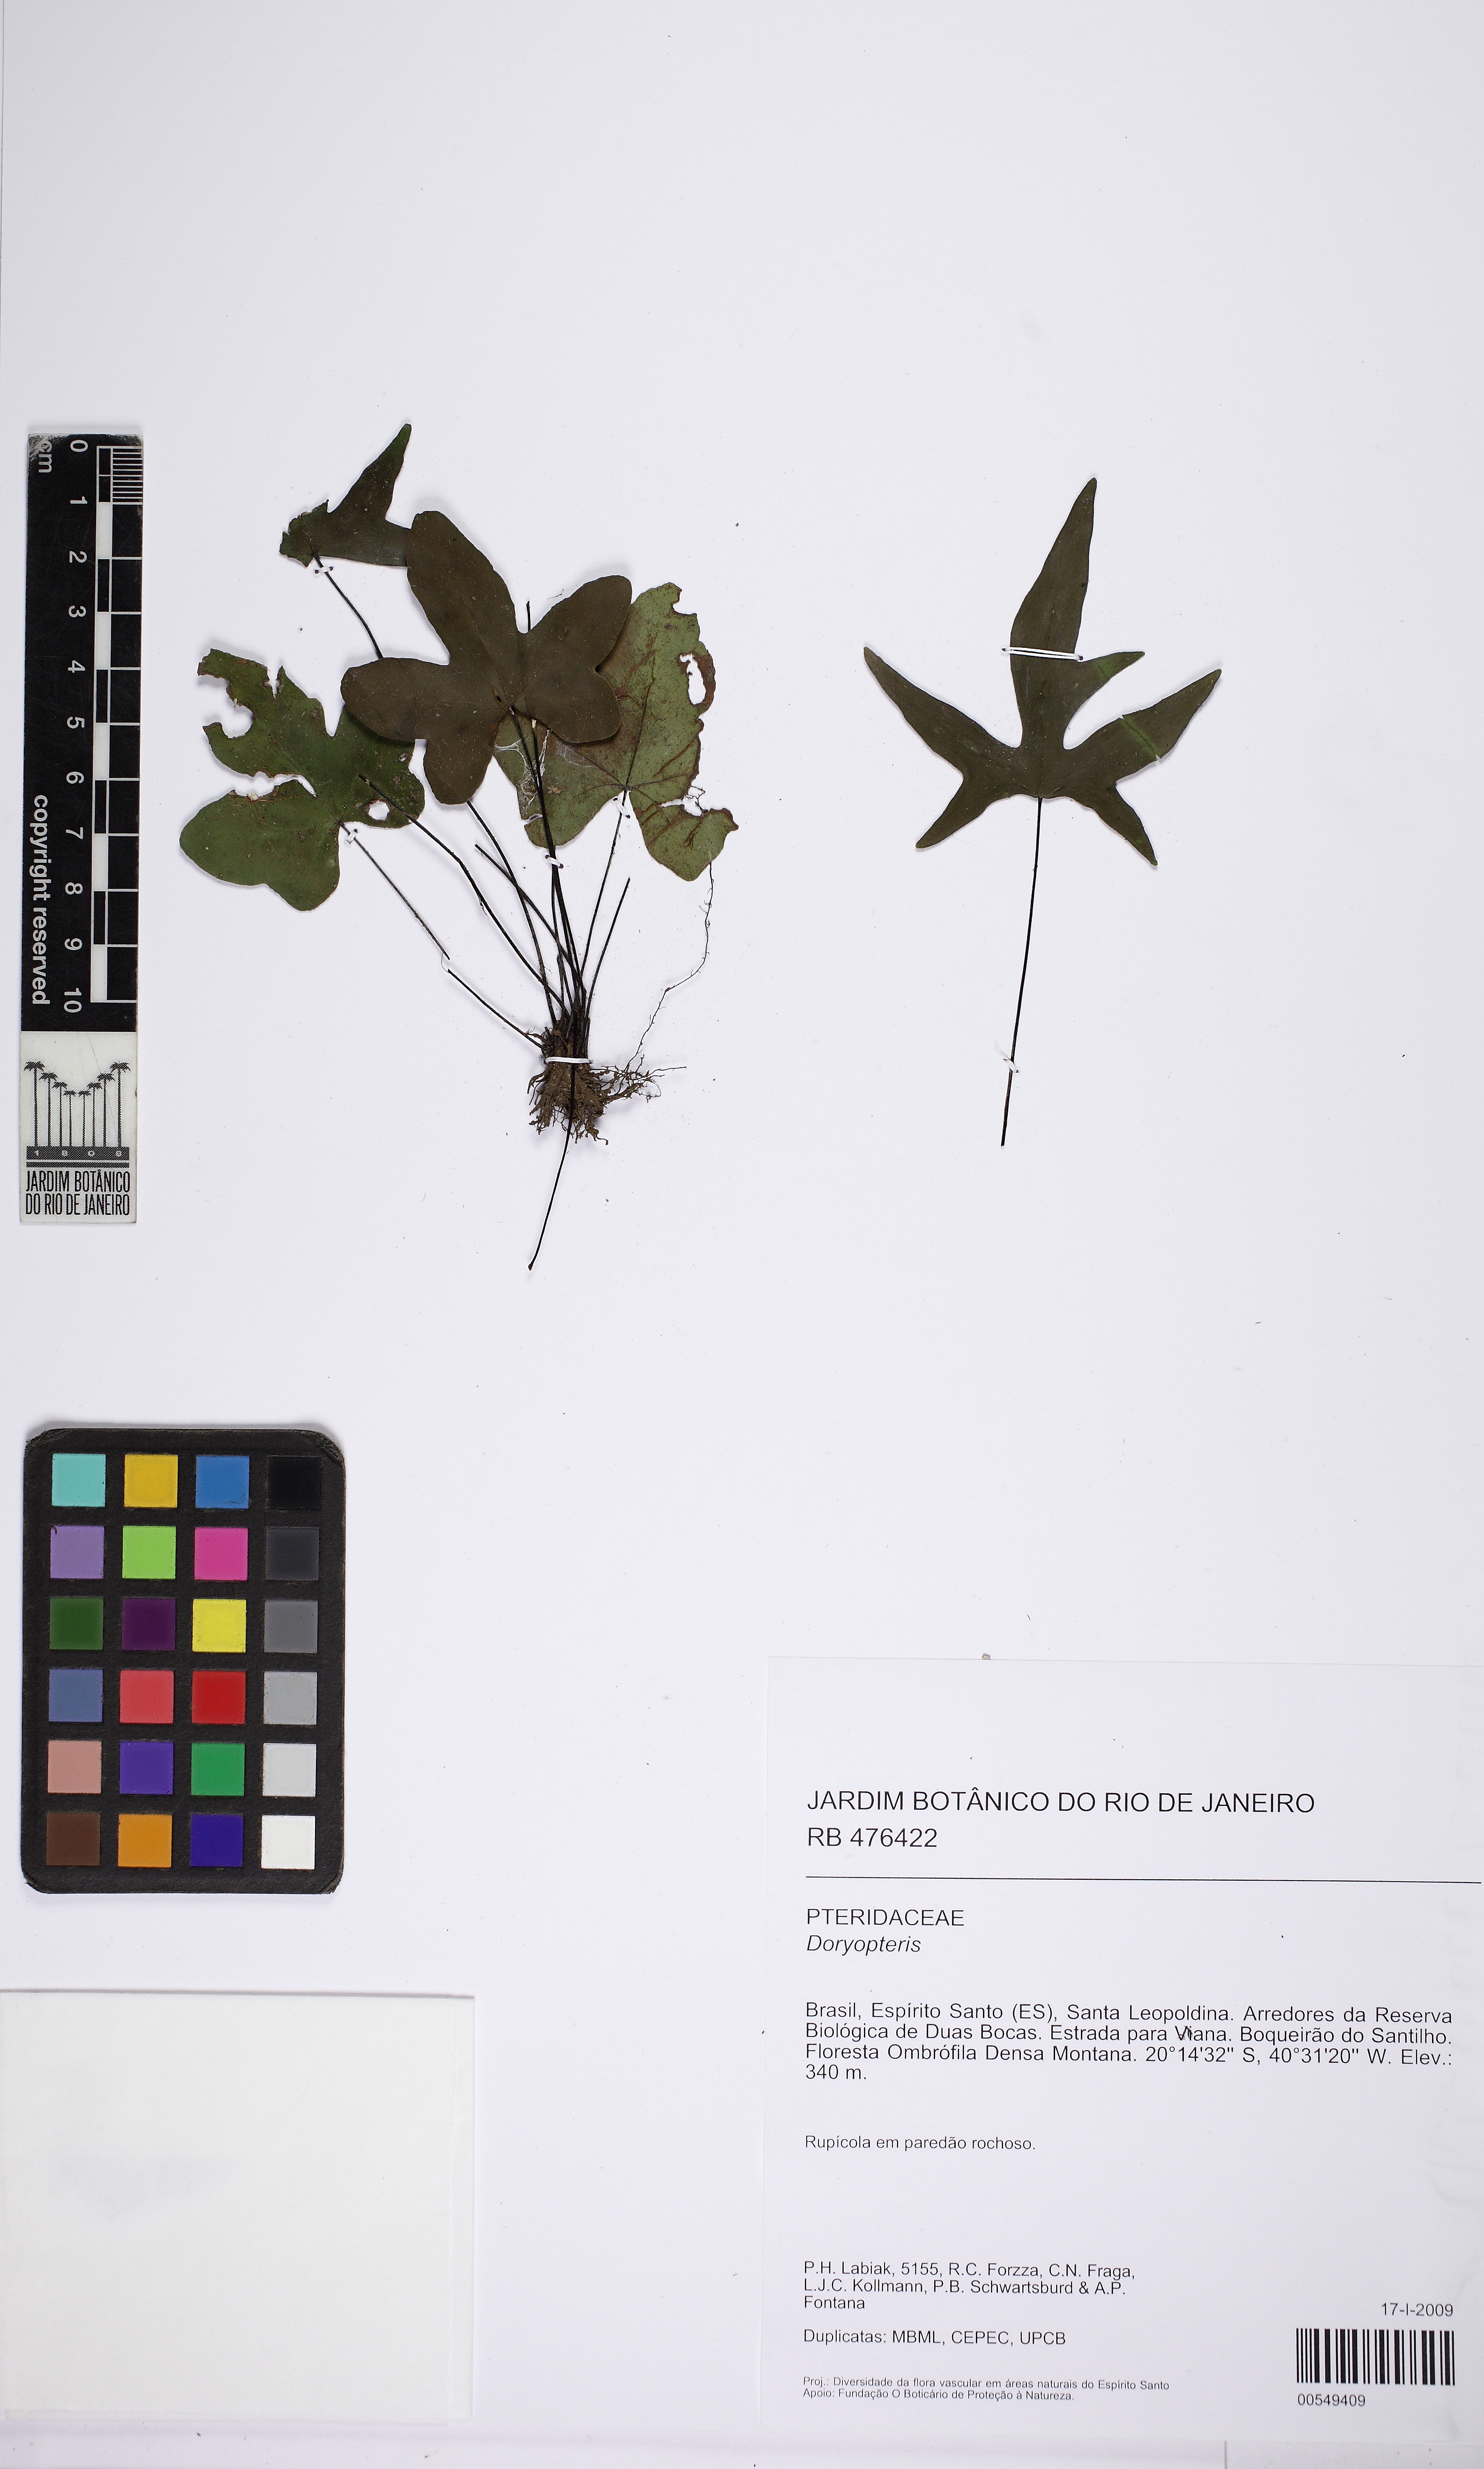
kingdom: Plantae
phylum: Tracheophyta
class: Polypodiopsida
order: Polypodiales
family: Pteridaceae
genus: Doryopteris
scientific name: Doryopteris varians
